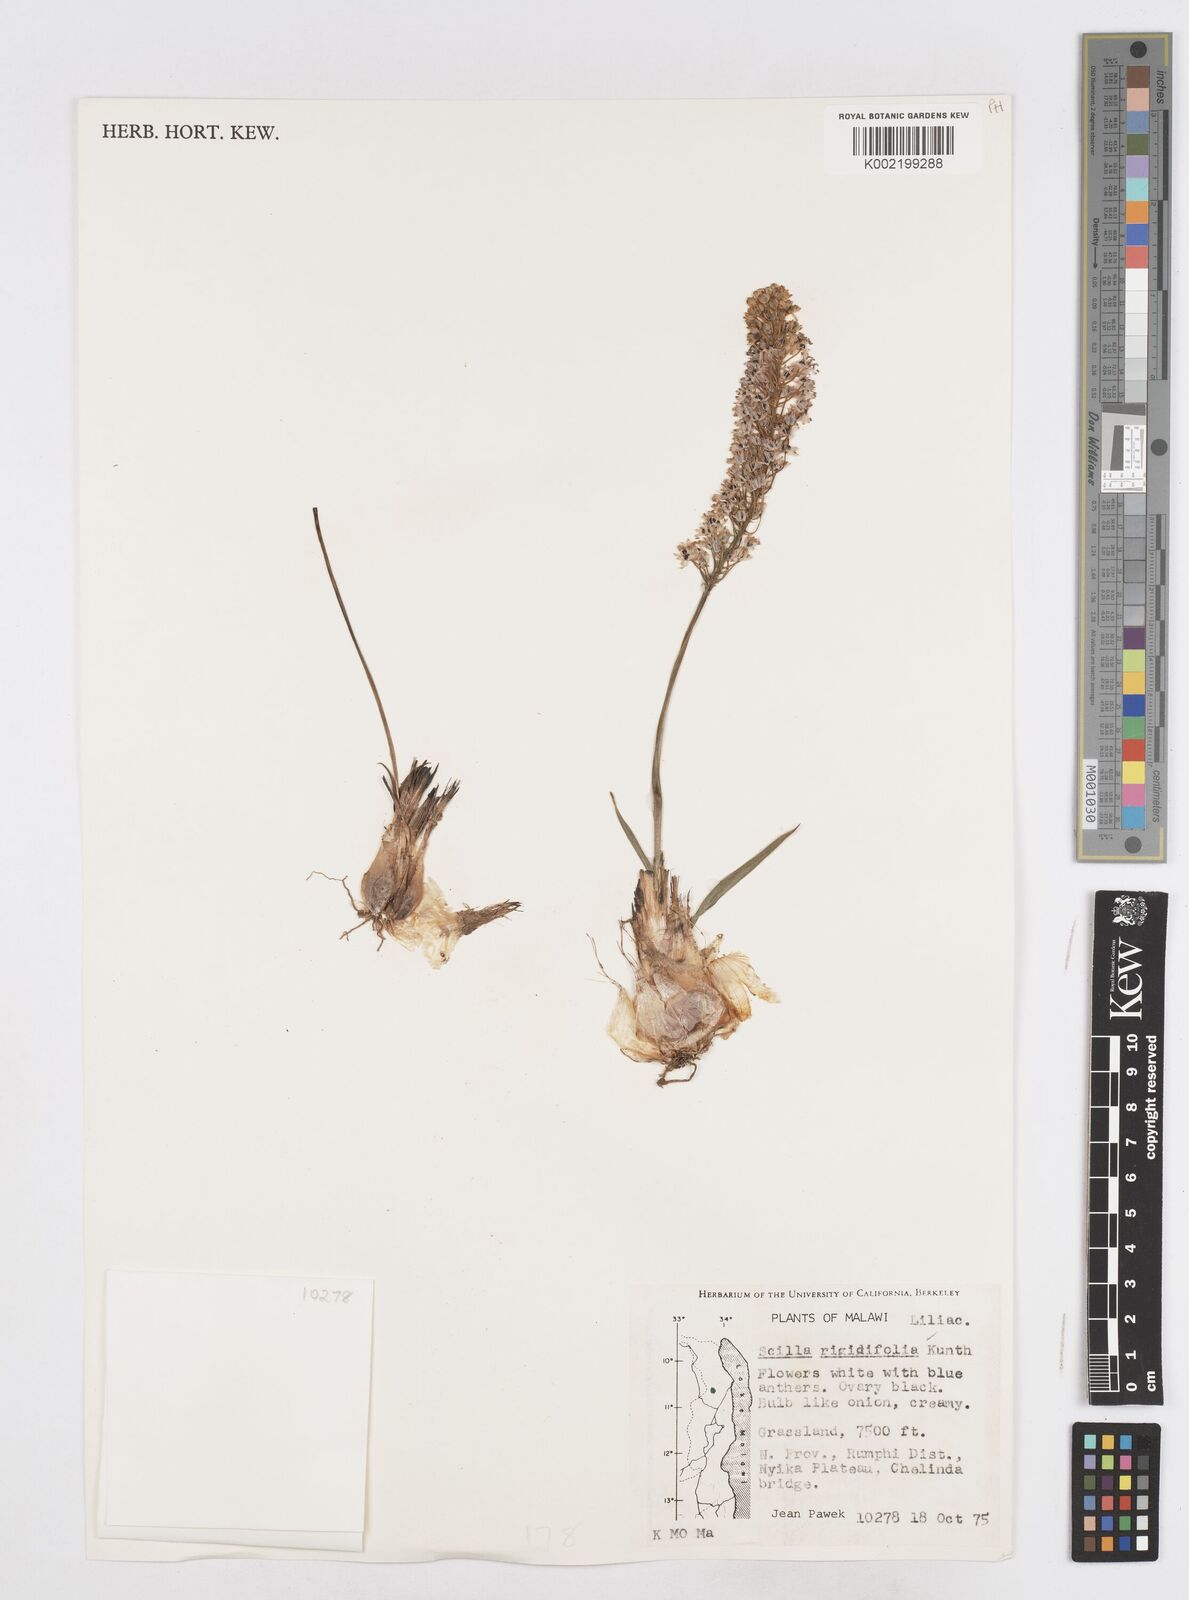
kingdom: Plantae
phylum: Tracheophyta
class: Liliopsida
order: Asparagales
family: Asparagaceae
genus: Schizocarphus
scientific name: Schizocarphus nervosus
